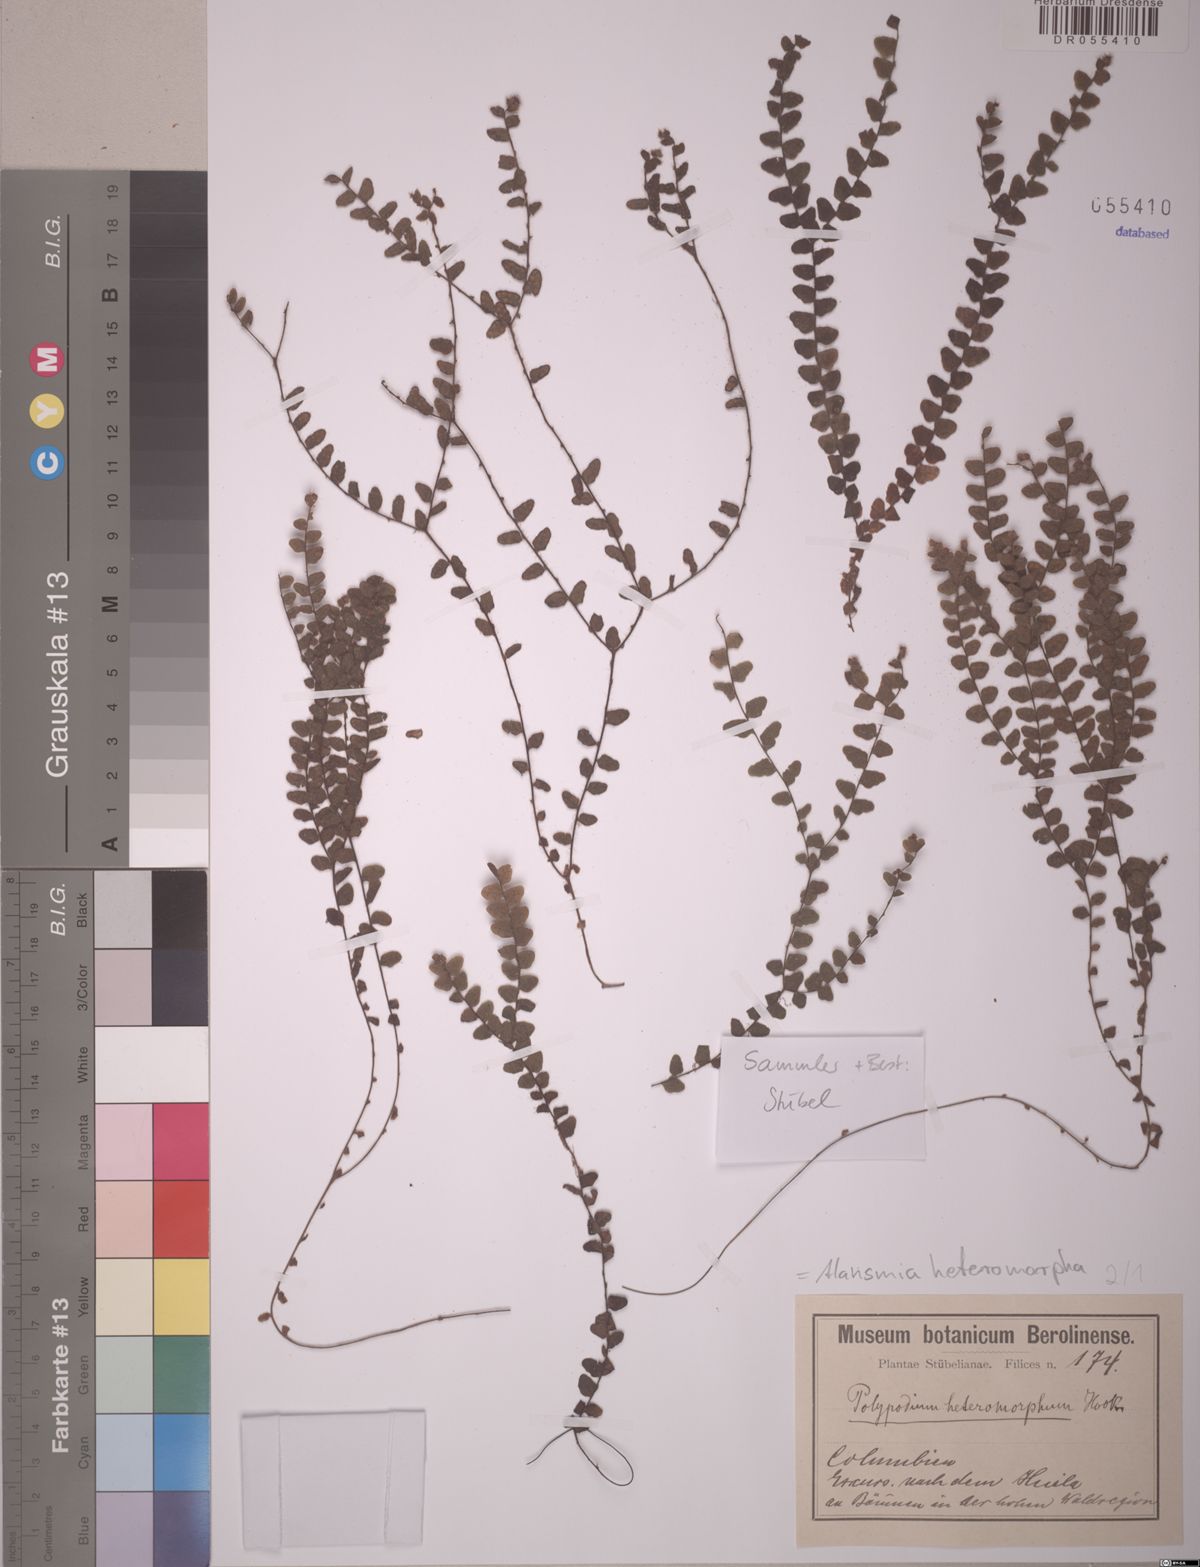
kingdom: Plantae
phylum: Tracheophyta
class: Polypodiopsida
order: Polypodiales
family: Polypodiaceae
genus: Alansmia
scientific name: Alansmia heteromorpha
